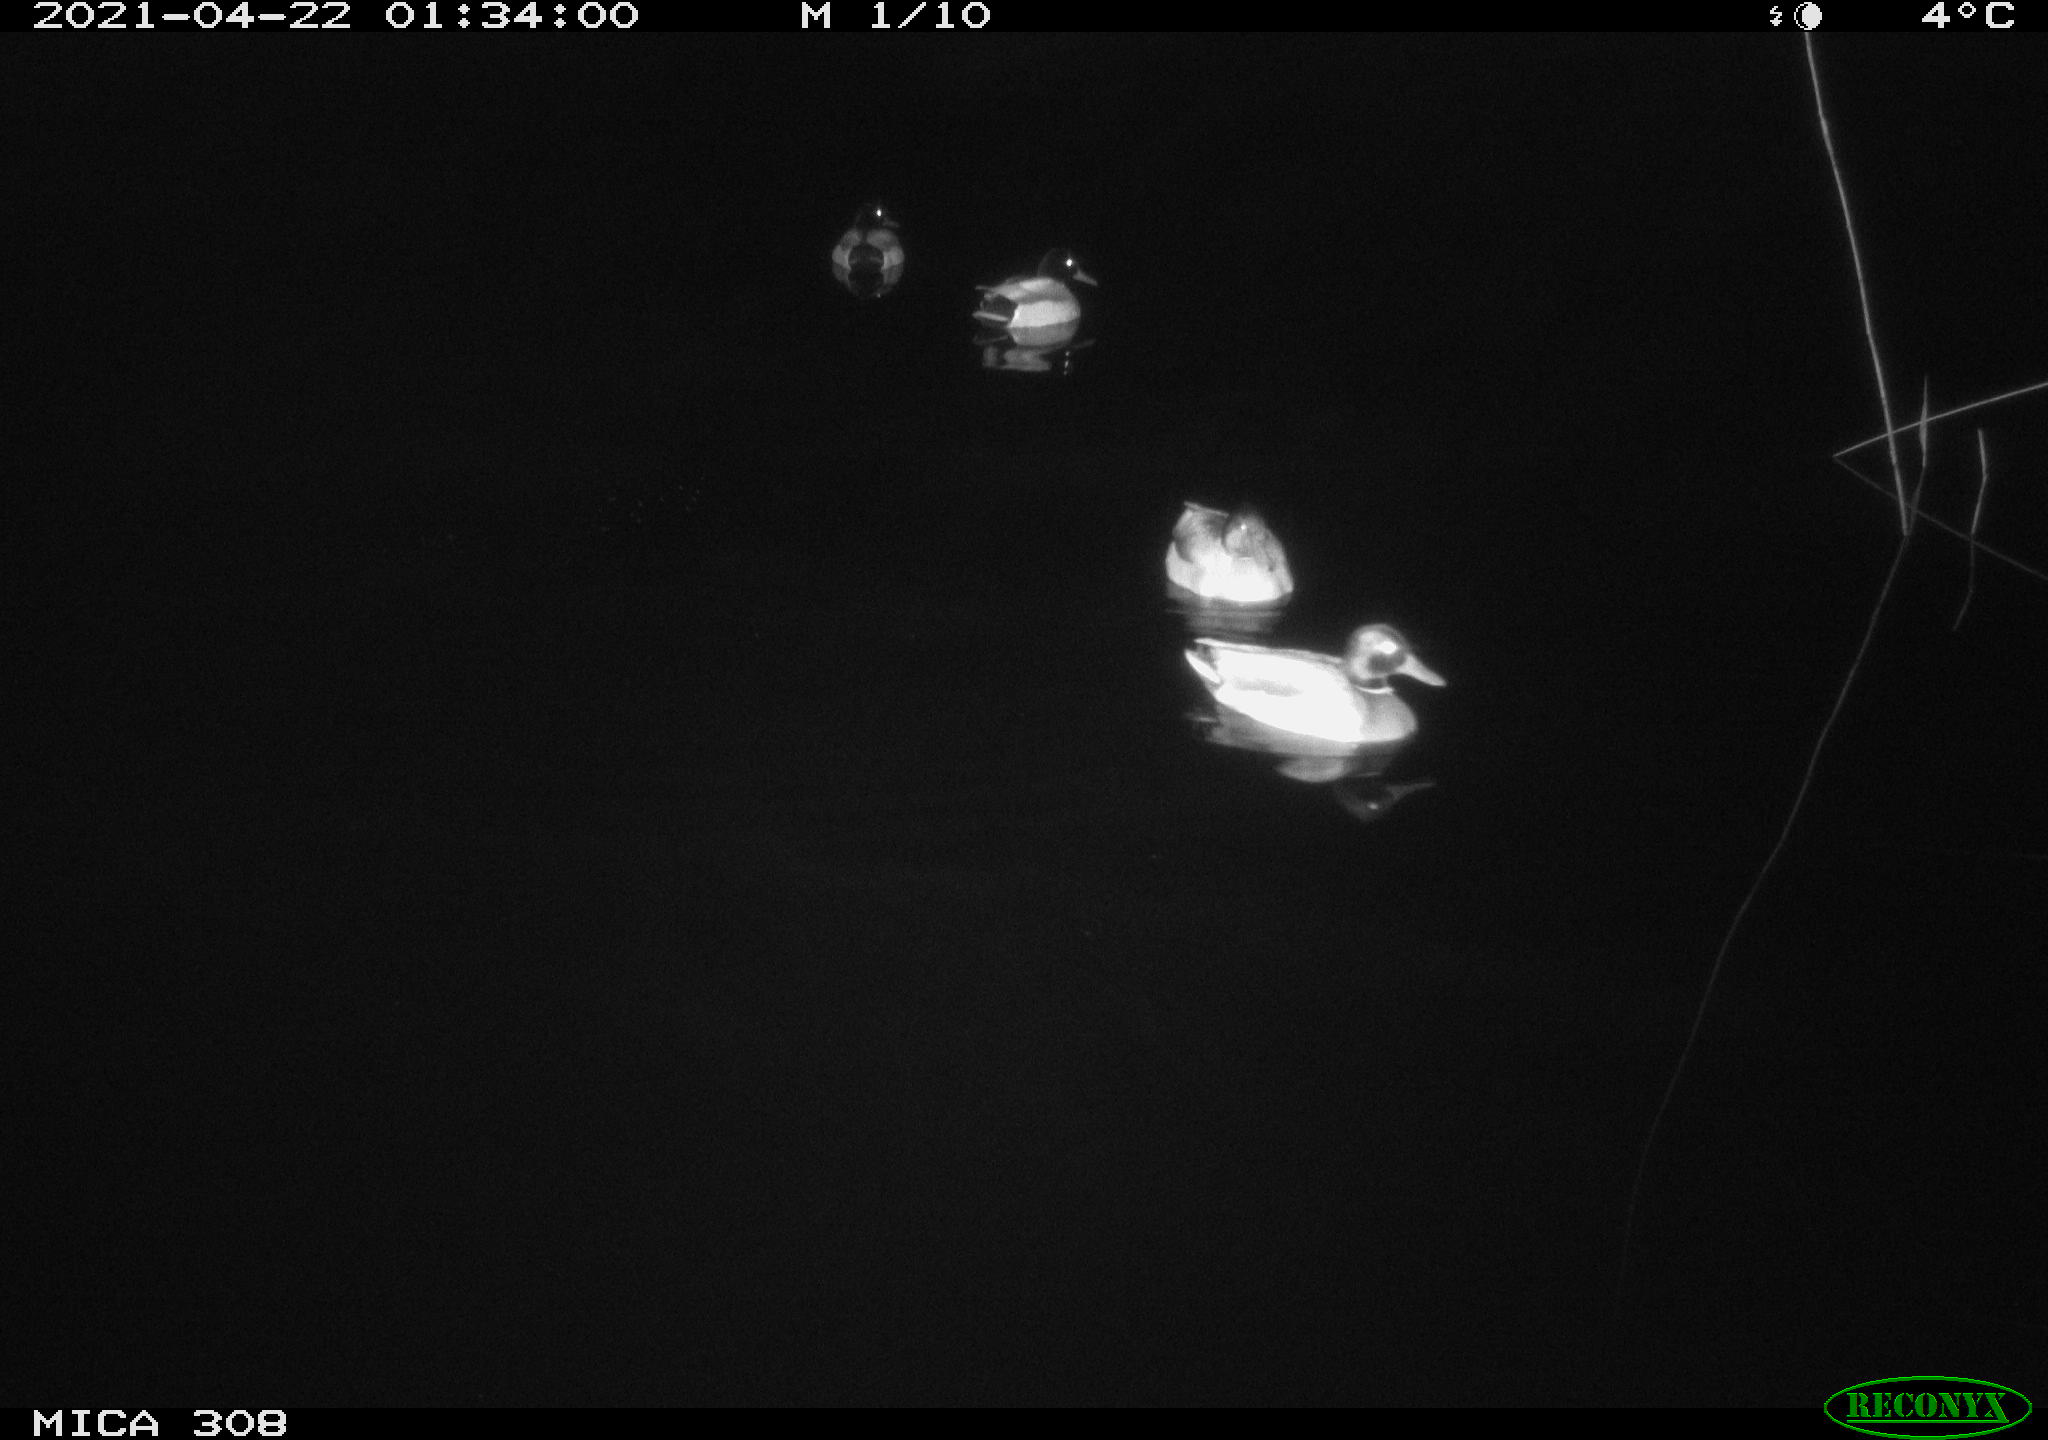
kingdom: Animalia
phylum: Chordata
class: Aves
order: Anseriformes
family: Anatidae
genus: Anas
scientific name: Anas platyrhynchos
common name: Mallard
